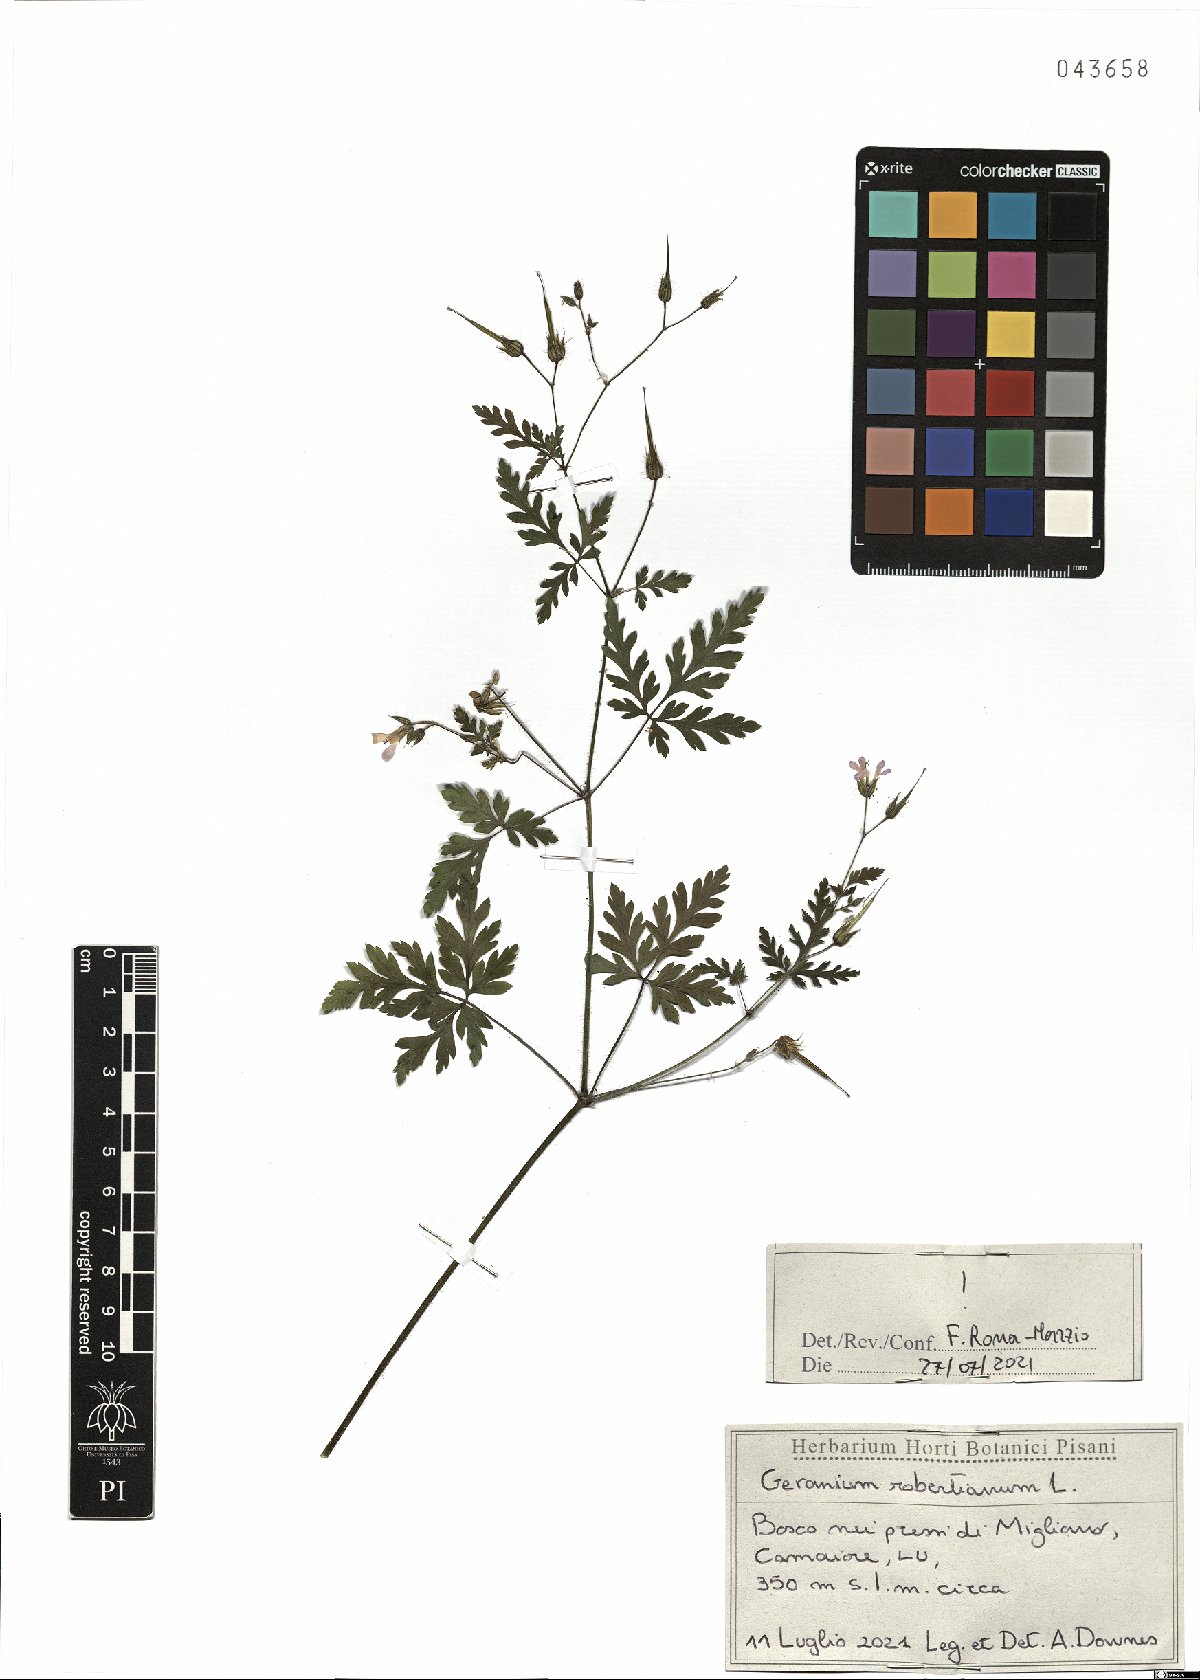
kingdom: Plantae
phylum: Tracheophyta
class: Magnoliopsida
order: Geraniales
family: Geraniaceae
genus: Geranium
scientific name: Geranium robertianum
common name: Herb-robert
